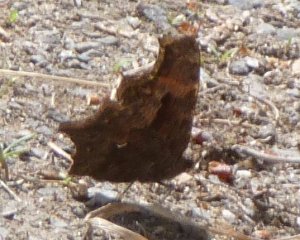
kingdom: Animalia
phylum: Arthropoda
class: Insecta
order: Lepidoptera
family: Nymphalidae
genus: Polygonia
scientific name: Polygonia progne
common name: Gray Comma
